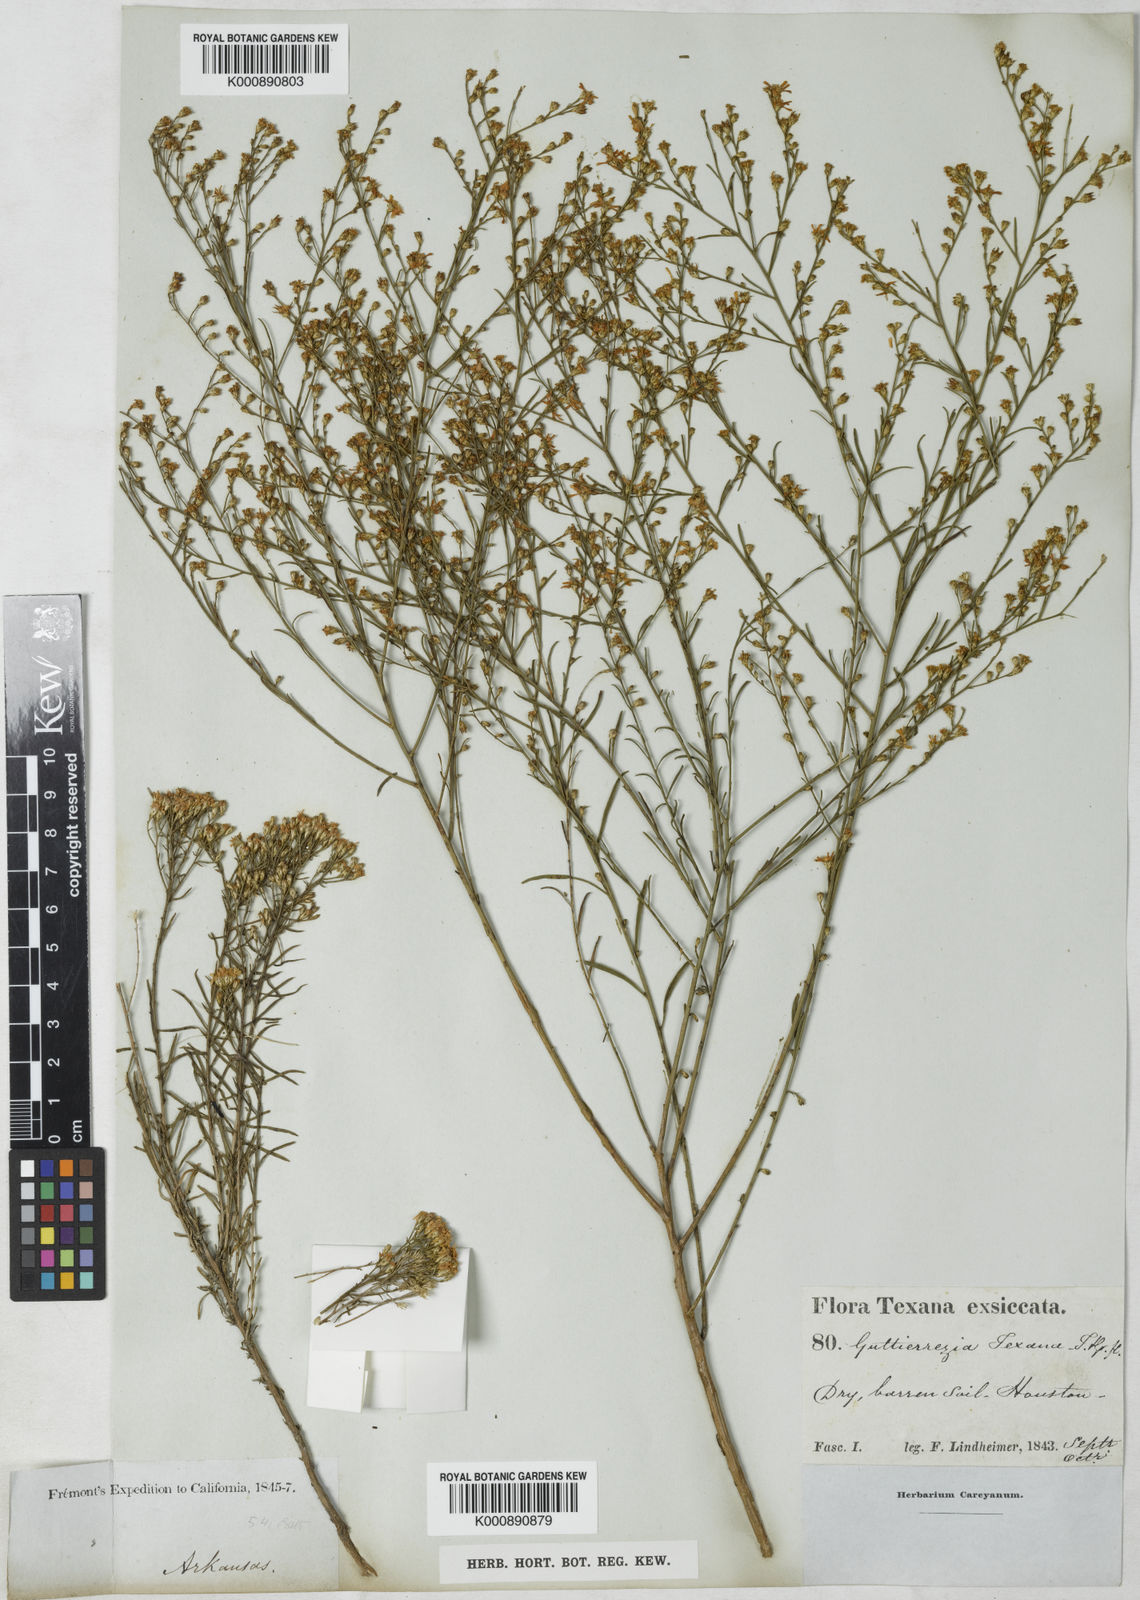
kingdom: Plantae
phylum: Tracheophyta
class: Magnoliopsida
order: Asterales
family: Asteraceae
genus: Gutierrezia
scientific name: Gutierrezia texana
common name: Texas snakeweed
